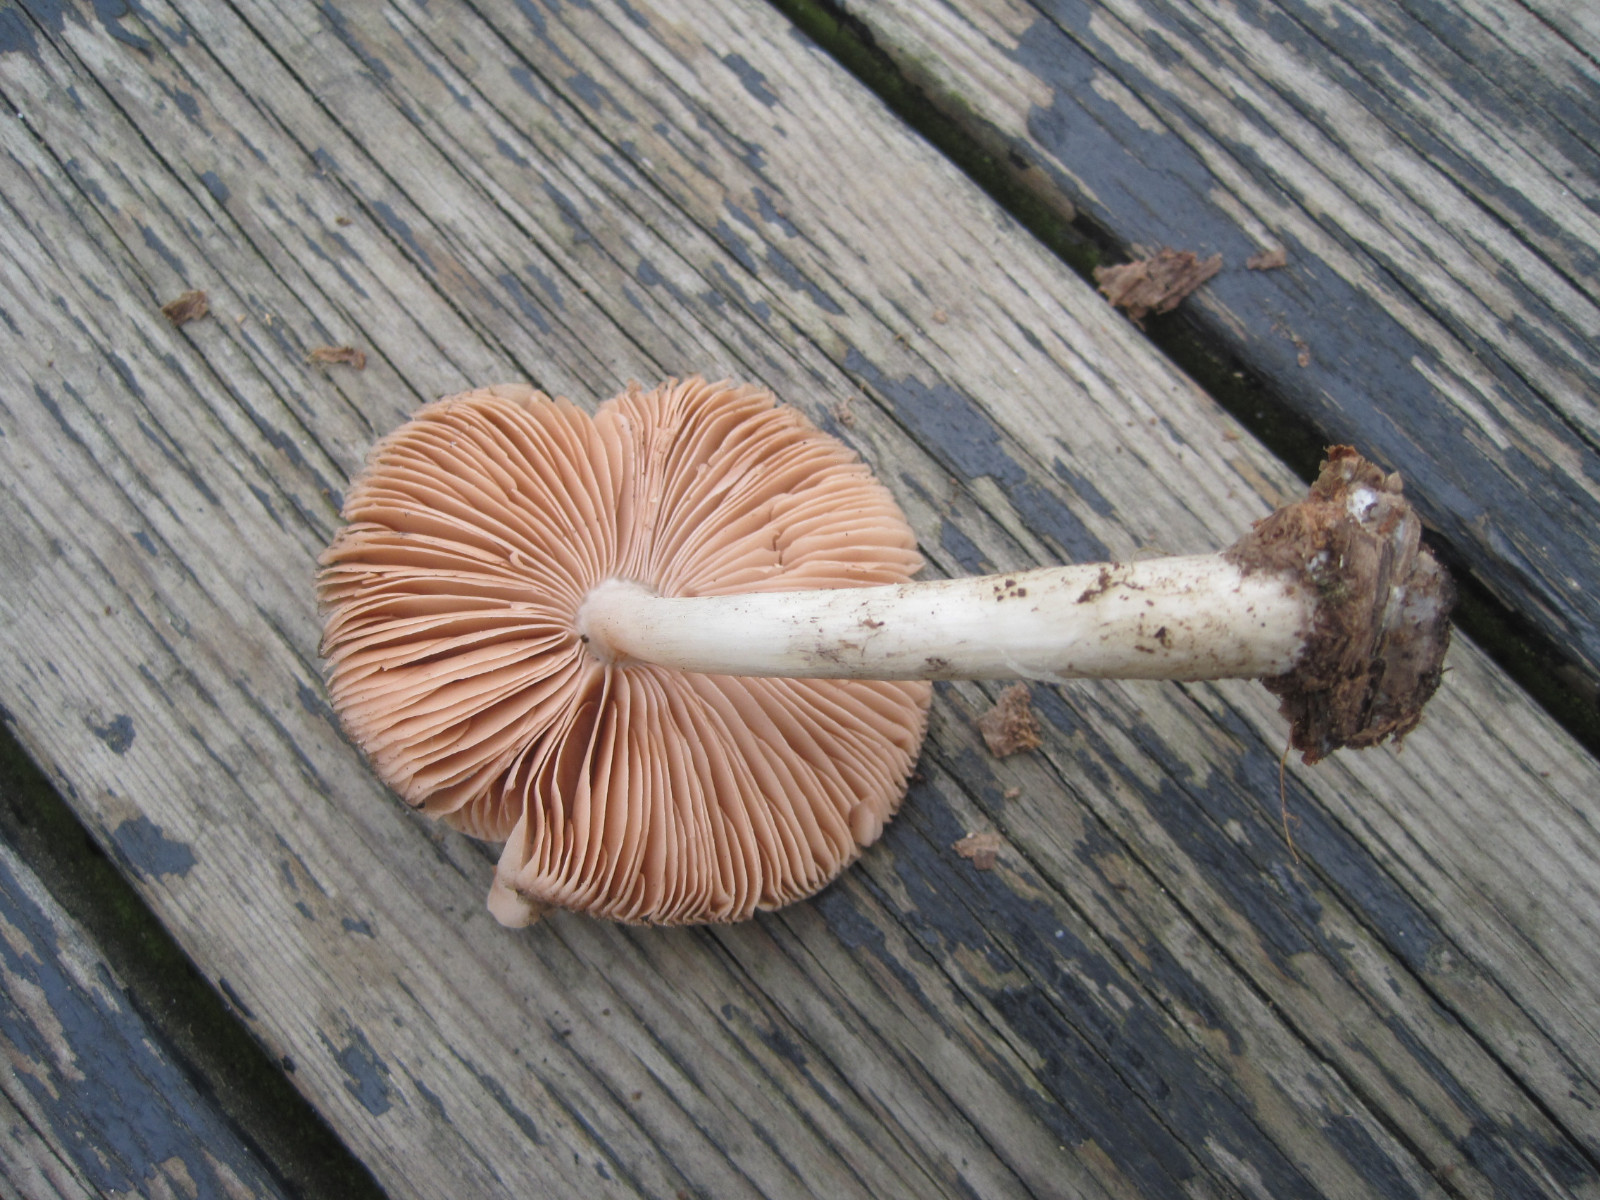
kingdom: Fungi
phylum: Basidiomycota
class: Agaricomycetes
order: Agaricales
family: Pluteaceae
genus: Pluteus
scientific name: Pluteus salicinus
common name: stiv skærmhat
